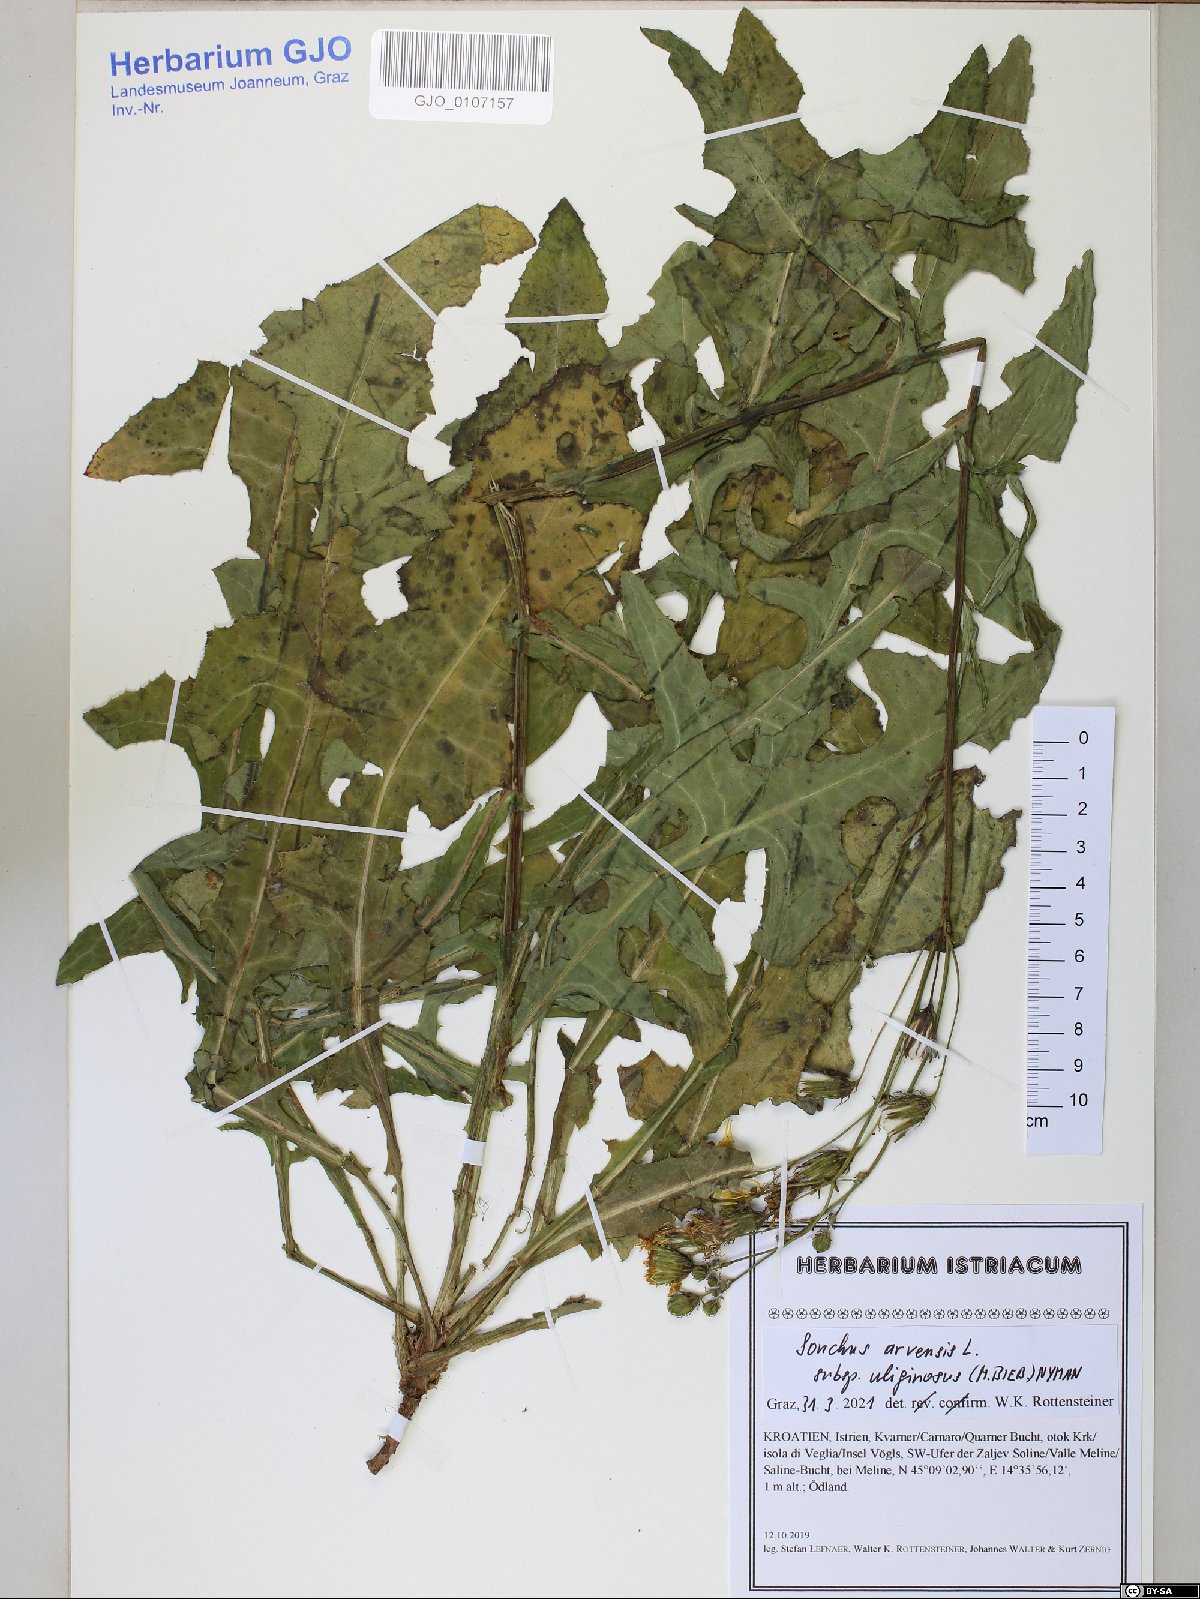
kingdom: Plantae
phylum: Tracheophyta
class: Liliopsida
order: Poales
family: Poaceae
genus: Melica
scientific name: Melica ciliata
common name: Hairy melicgrass
